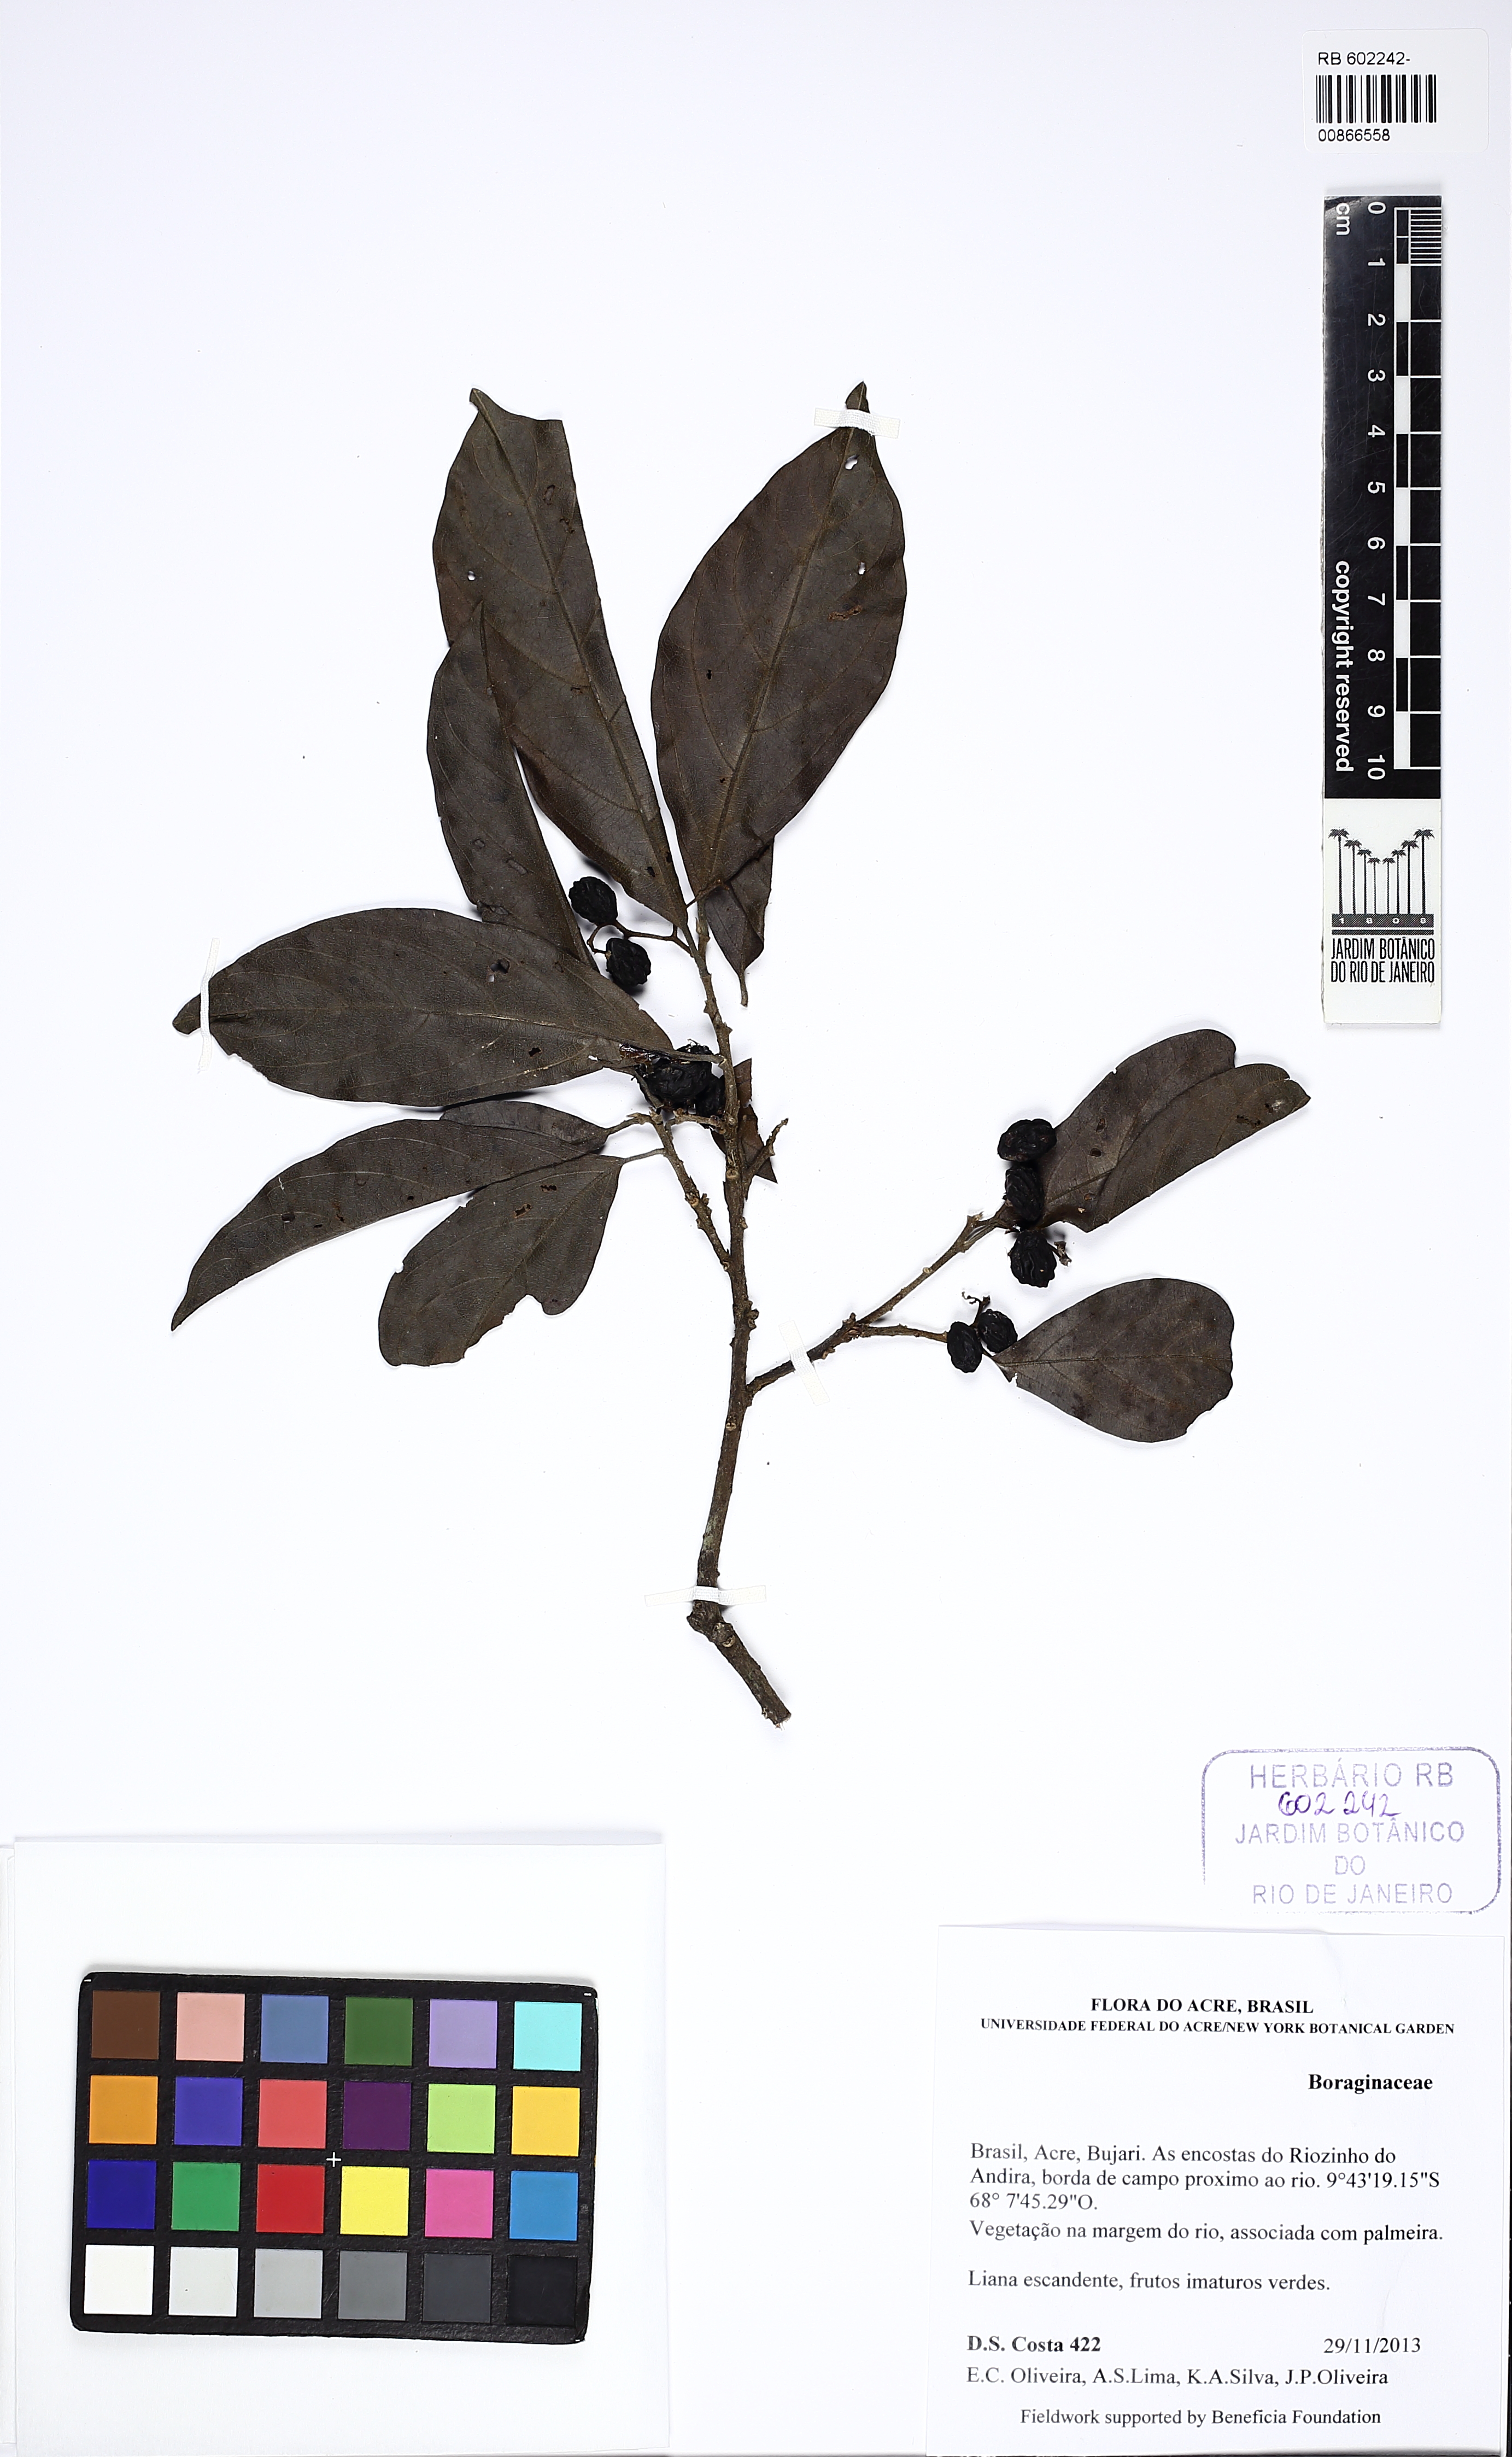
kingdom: Plantae
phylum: Tracheophyta
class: Magnoliopsida
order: Boraginales
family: Boraginaceae
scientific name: Boraginaceae
